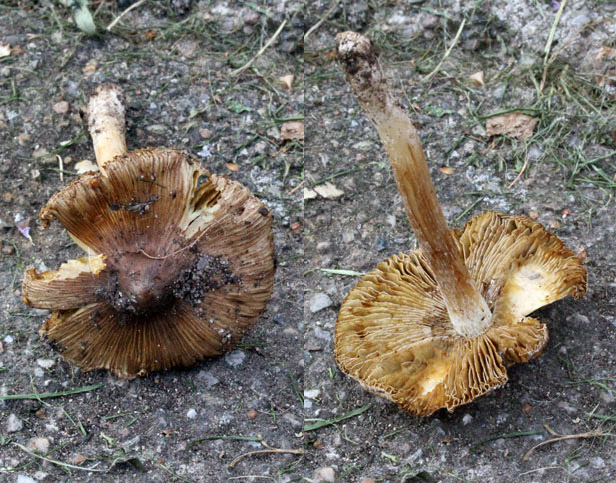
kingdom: Fungi
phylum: Basidiomycota
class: Agaricomycetes
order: Agaricales
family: Inocybaceae
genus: Pseudosperma
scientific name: Pseudosperma rimosum
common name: gulbladet trævlhat
